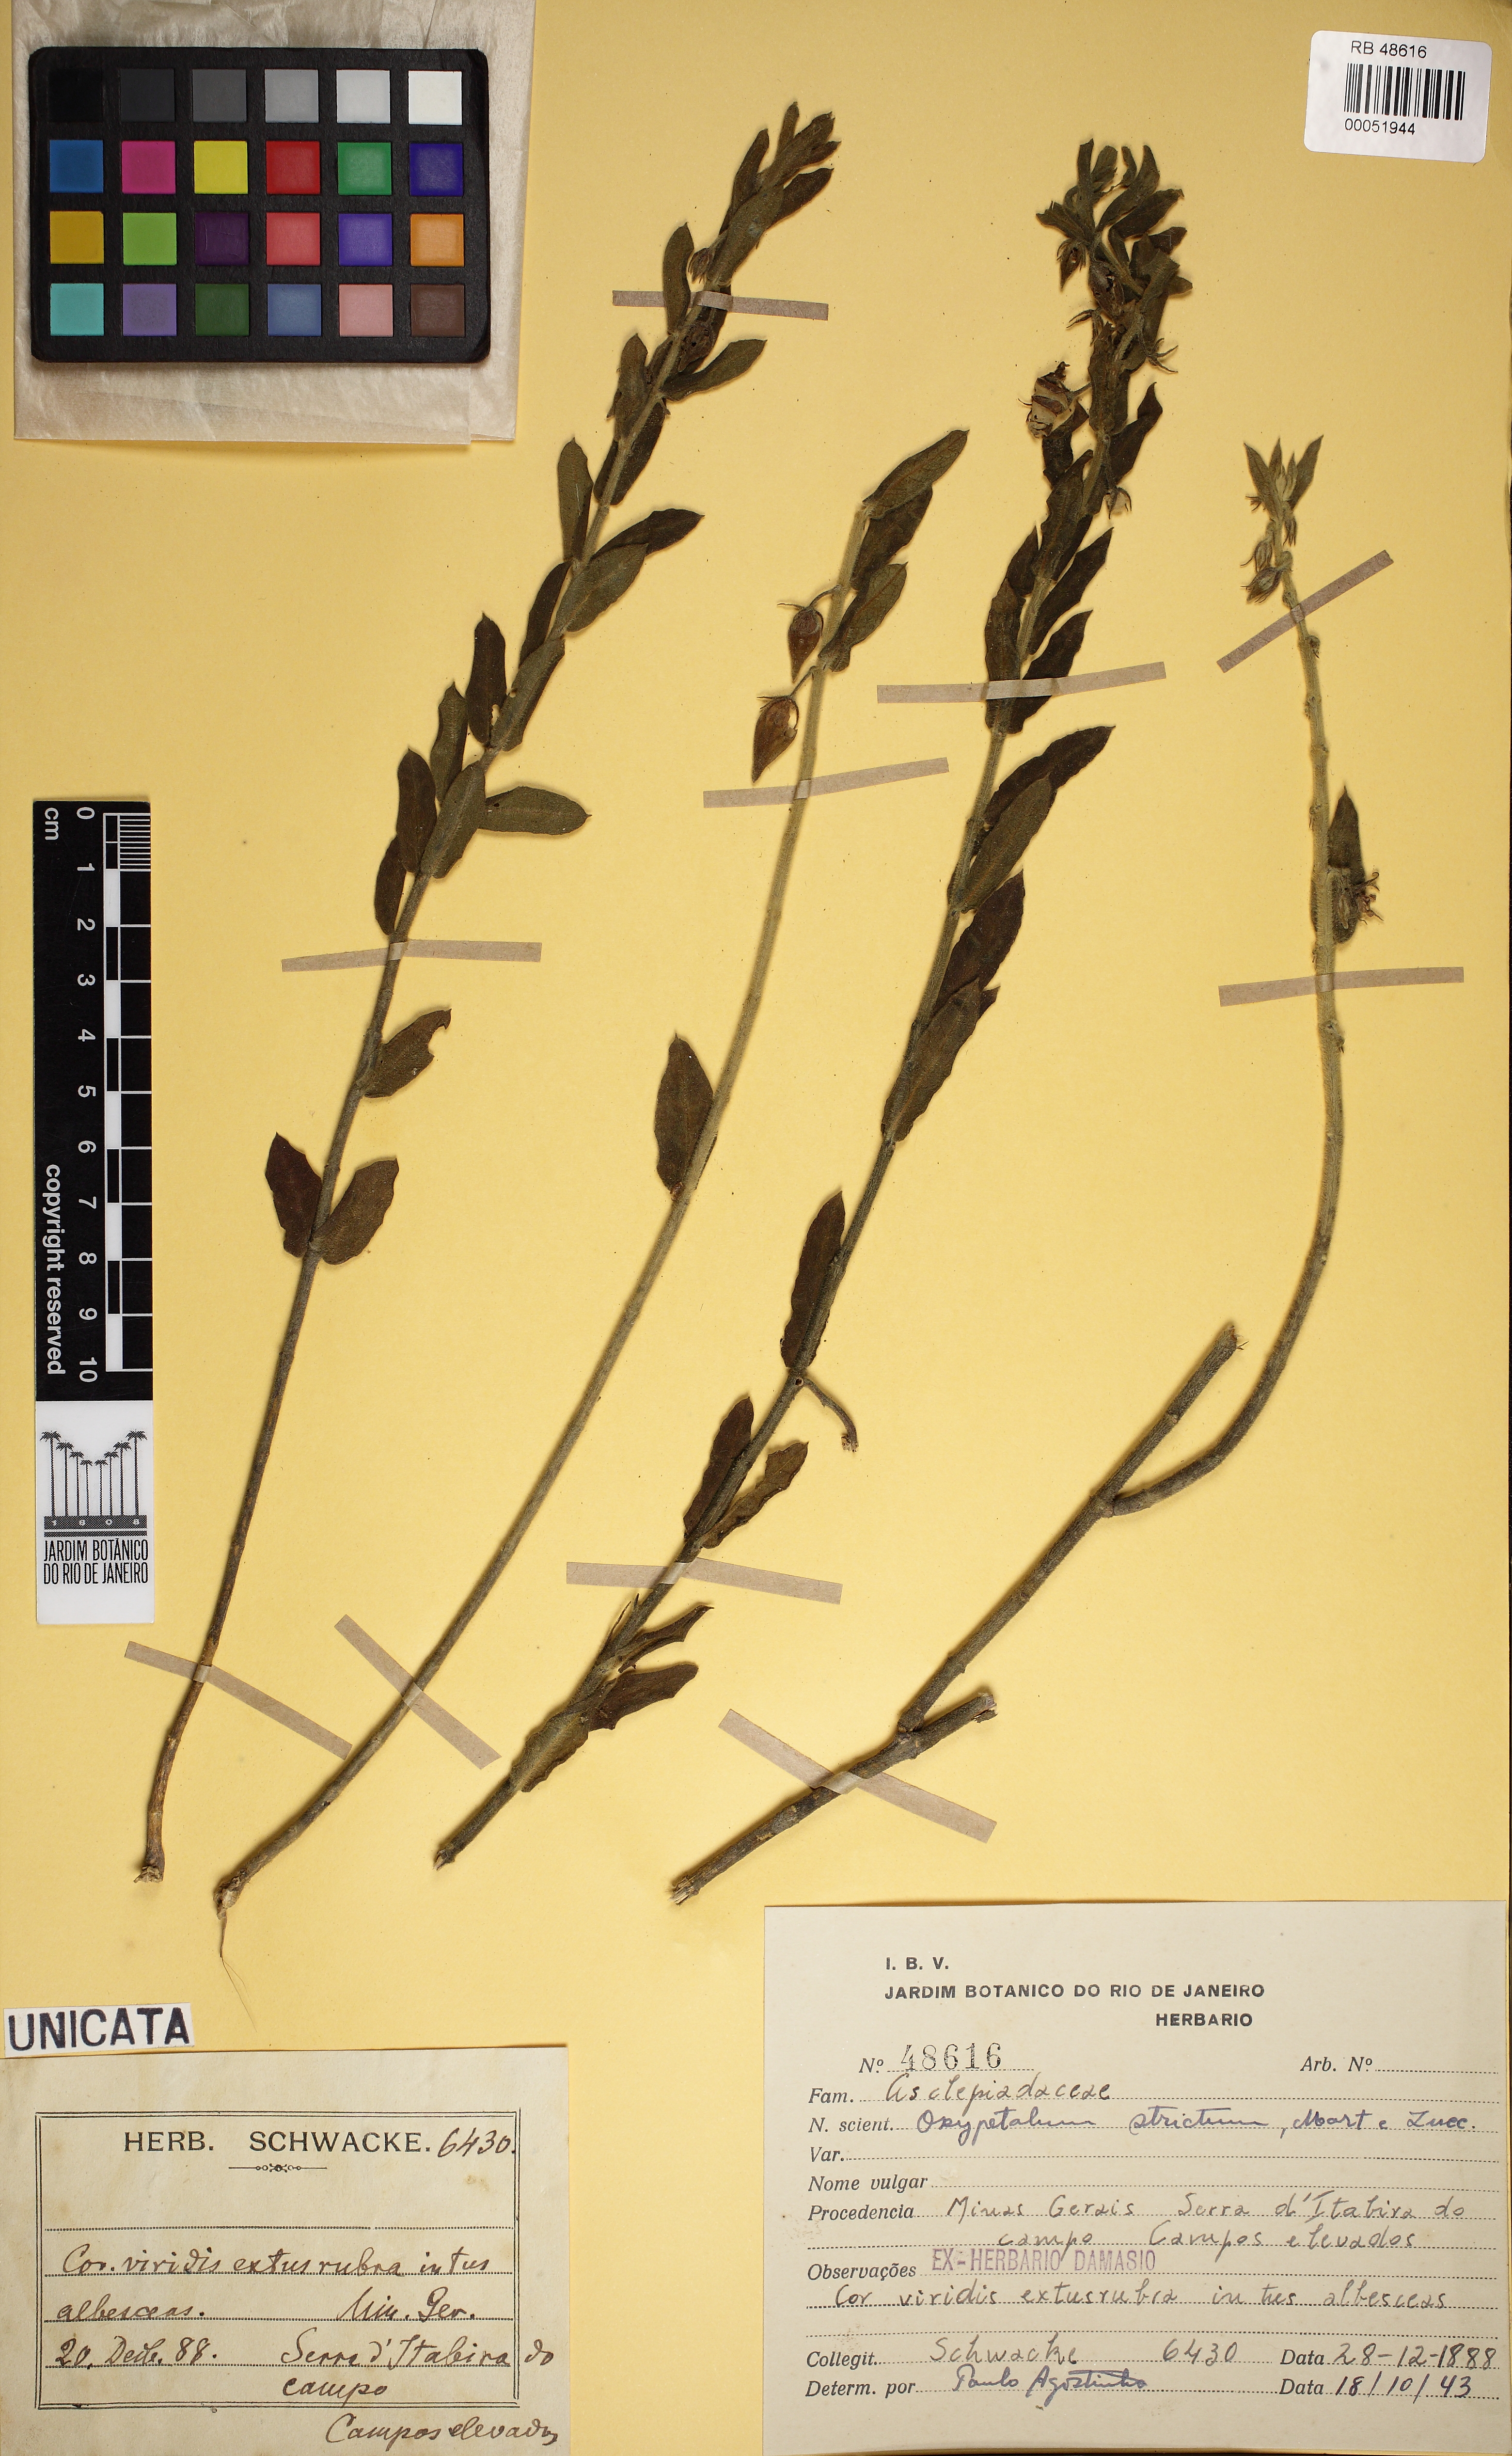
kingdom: Plantae
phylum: Tracheophyta
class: Magnoliopsida
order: Gentianales
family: Apocynaceae
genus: Oxypetalum
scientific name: Oxypetalum strictum
